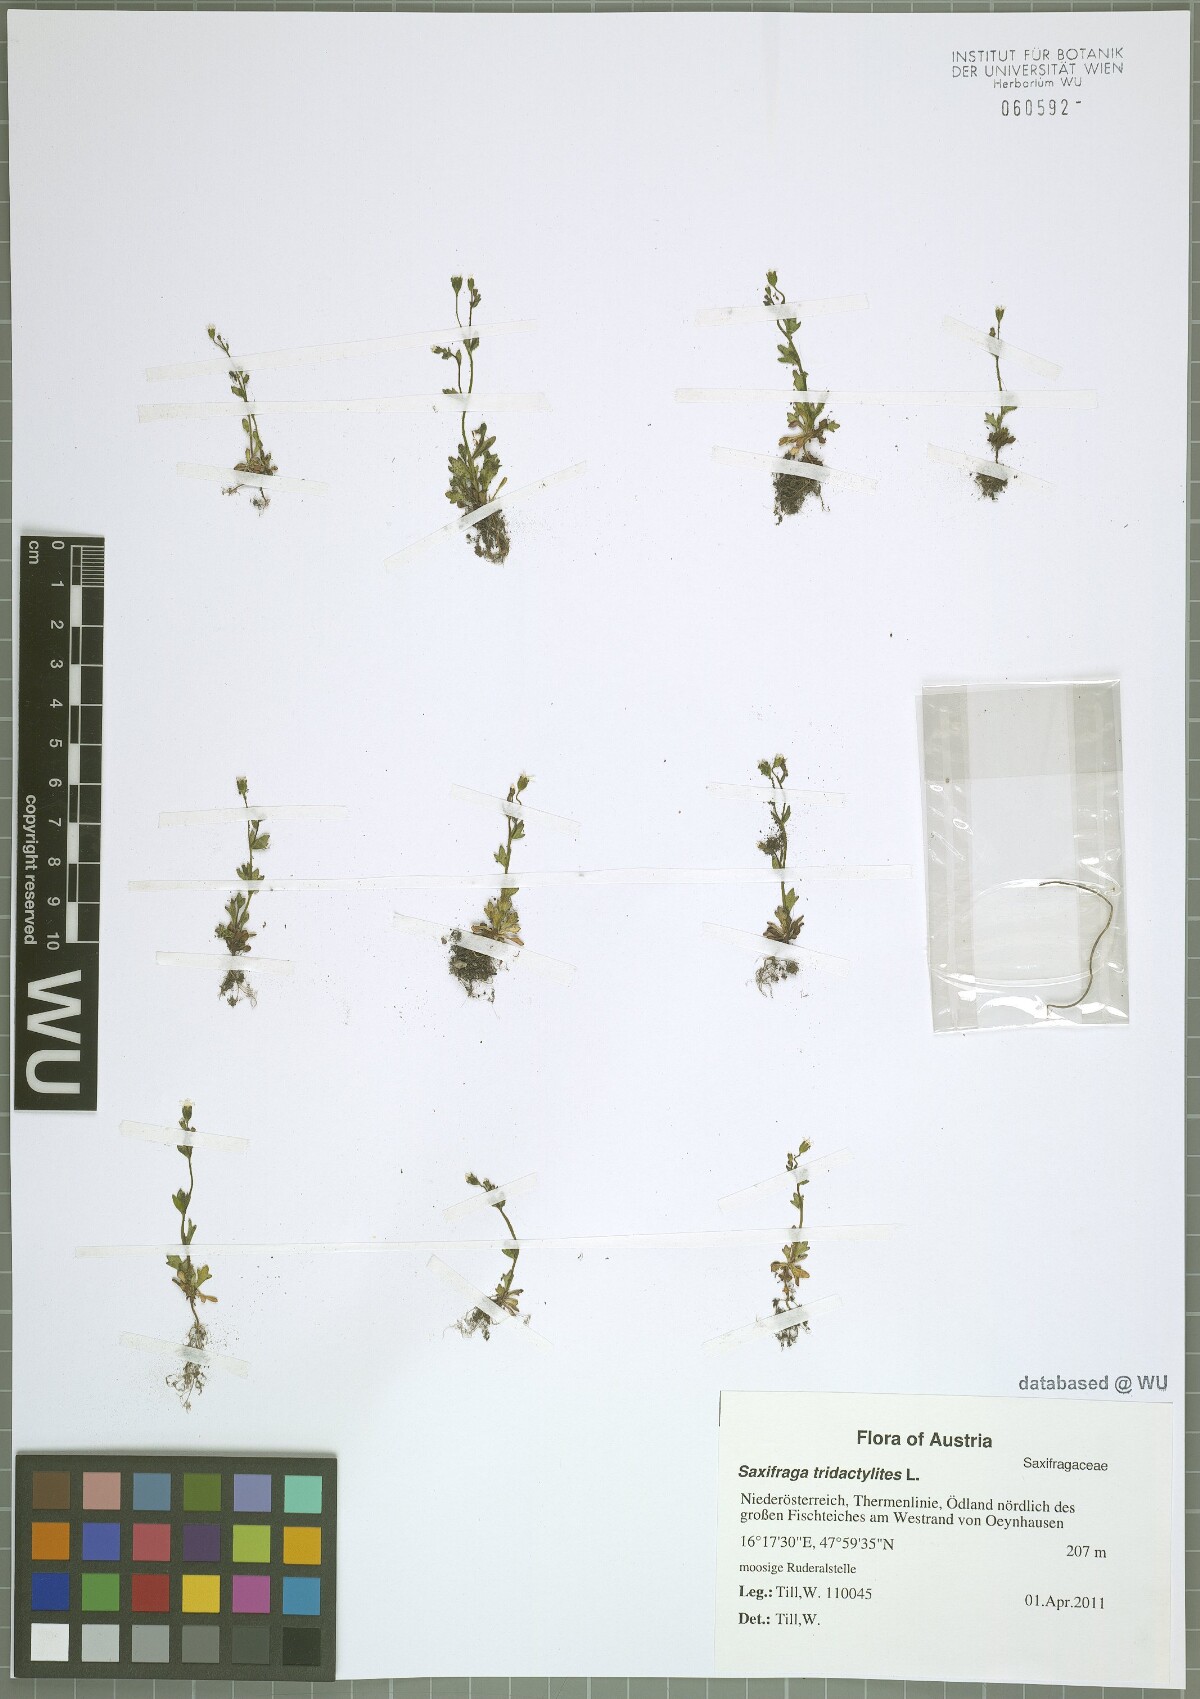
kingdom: Plantae
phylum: Tracheophyta
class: Magnoliopsida
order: Saxifragales
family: Saxifragaceae
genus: Saxifraga
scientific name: Saxifraga tridactylites
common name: Rue-leaved saxifrage
